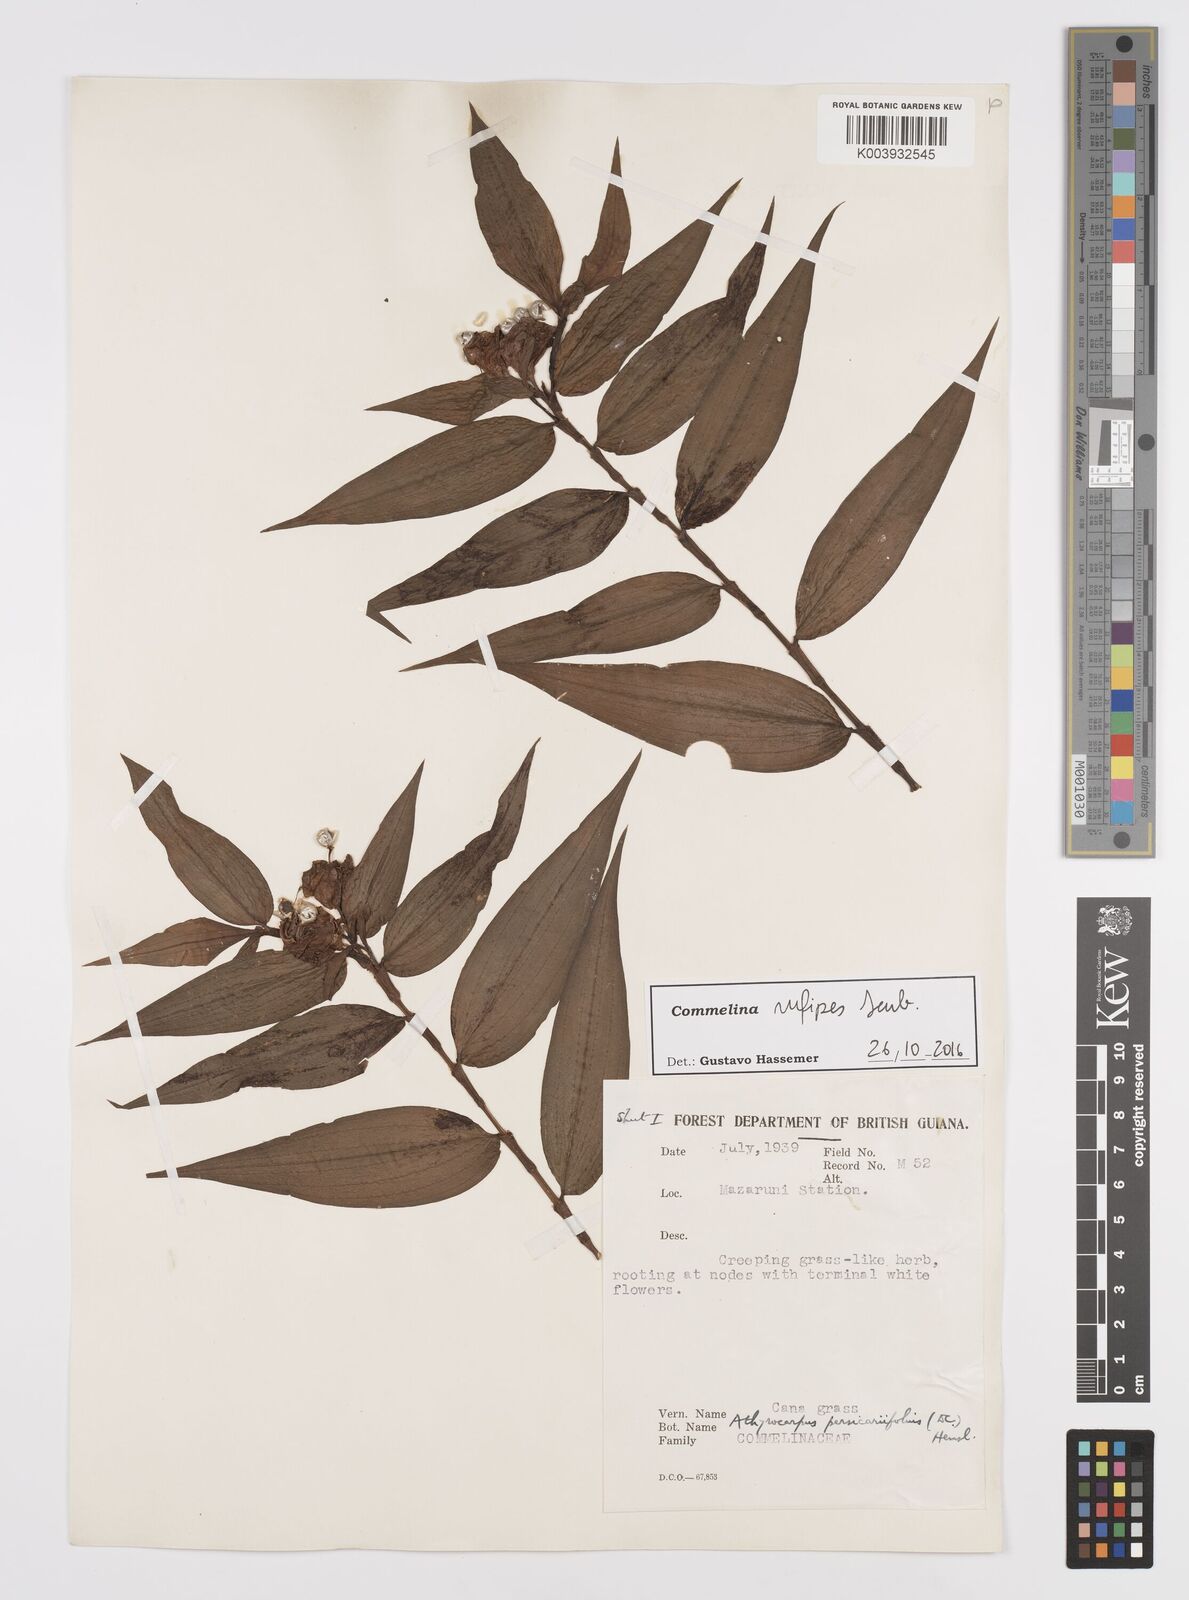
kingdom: Plantae
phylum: Tracheophyta
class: Liliopsida
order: Commelinales
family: Commelinaceae
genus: Commelina
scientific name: Commelina rufipes
